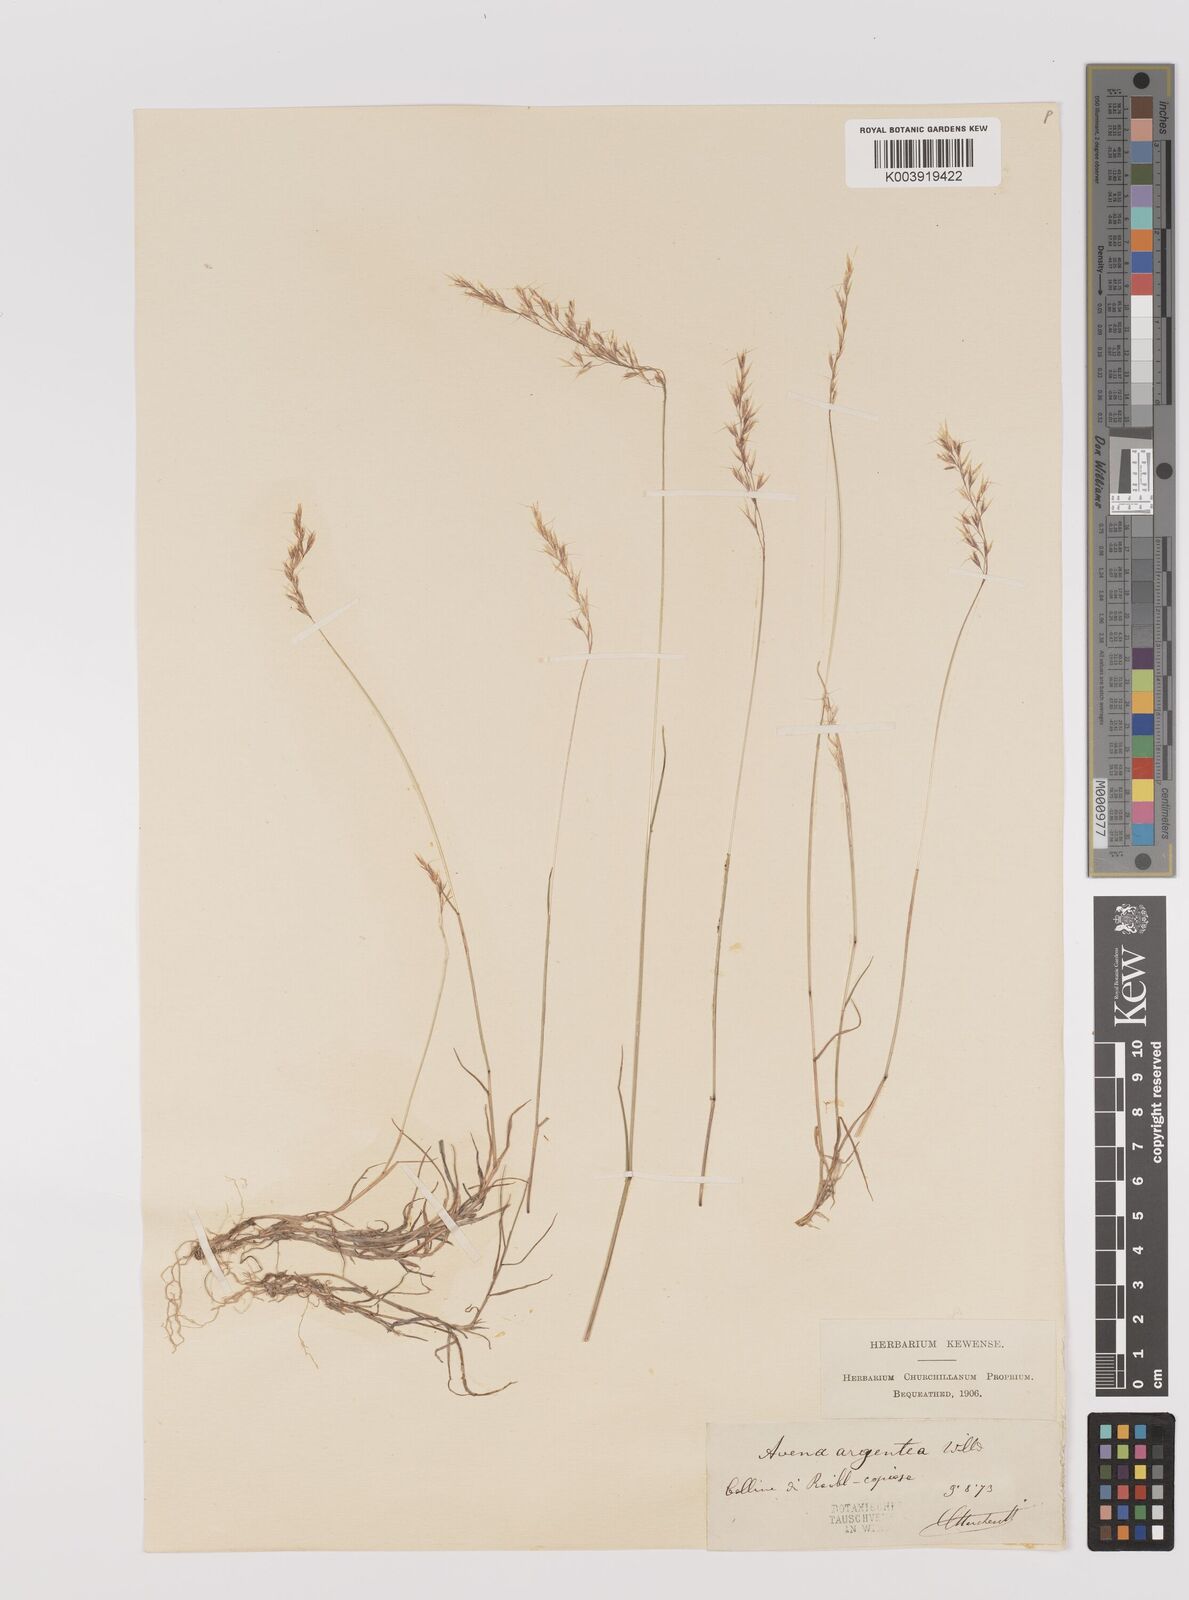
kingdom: Plantae
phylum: Tracheophyta
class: Liliopsida
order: Poales
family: Poaceae
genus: Trisetum
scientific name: Trisetum argenteum
